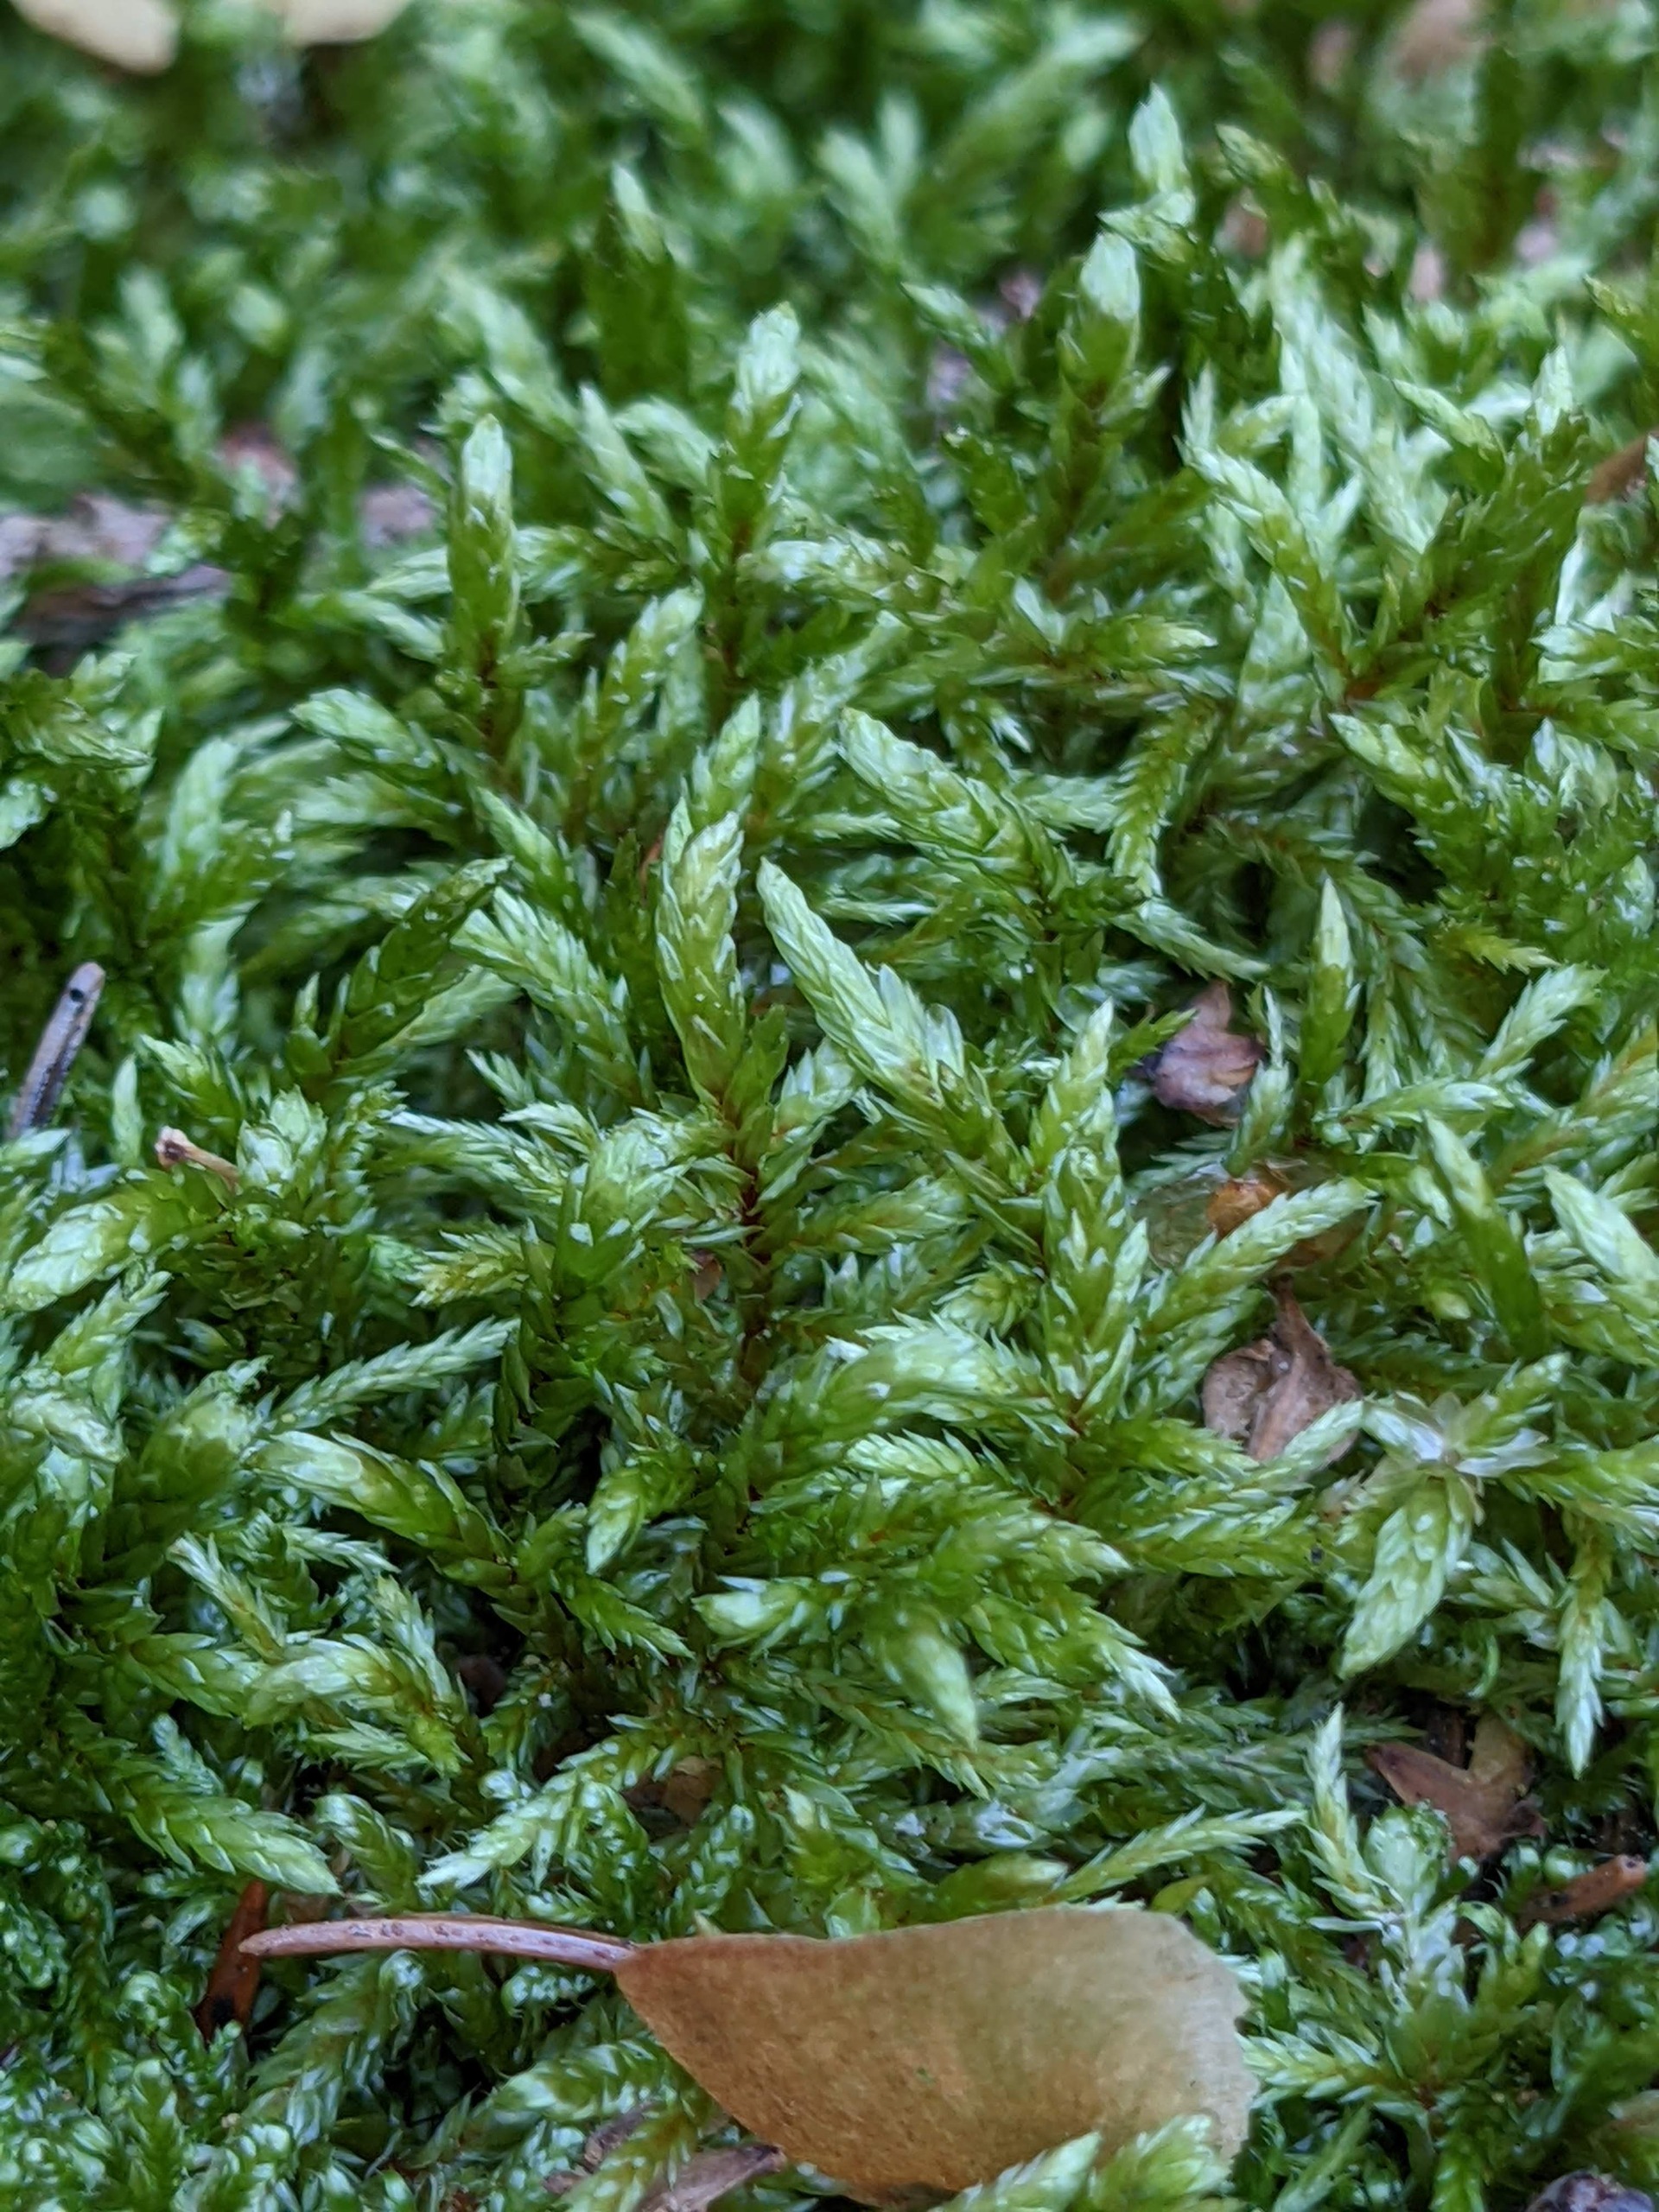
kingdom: Plantae
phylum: Bryophyta
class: Bryopsida
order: Hypnales
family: Hylocomiaceae
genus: Pleurozium
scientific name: Pleurozium schreberi
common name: Trind fyrremos
